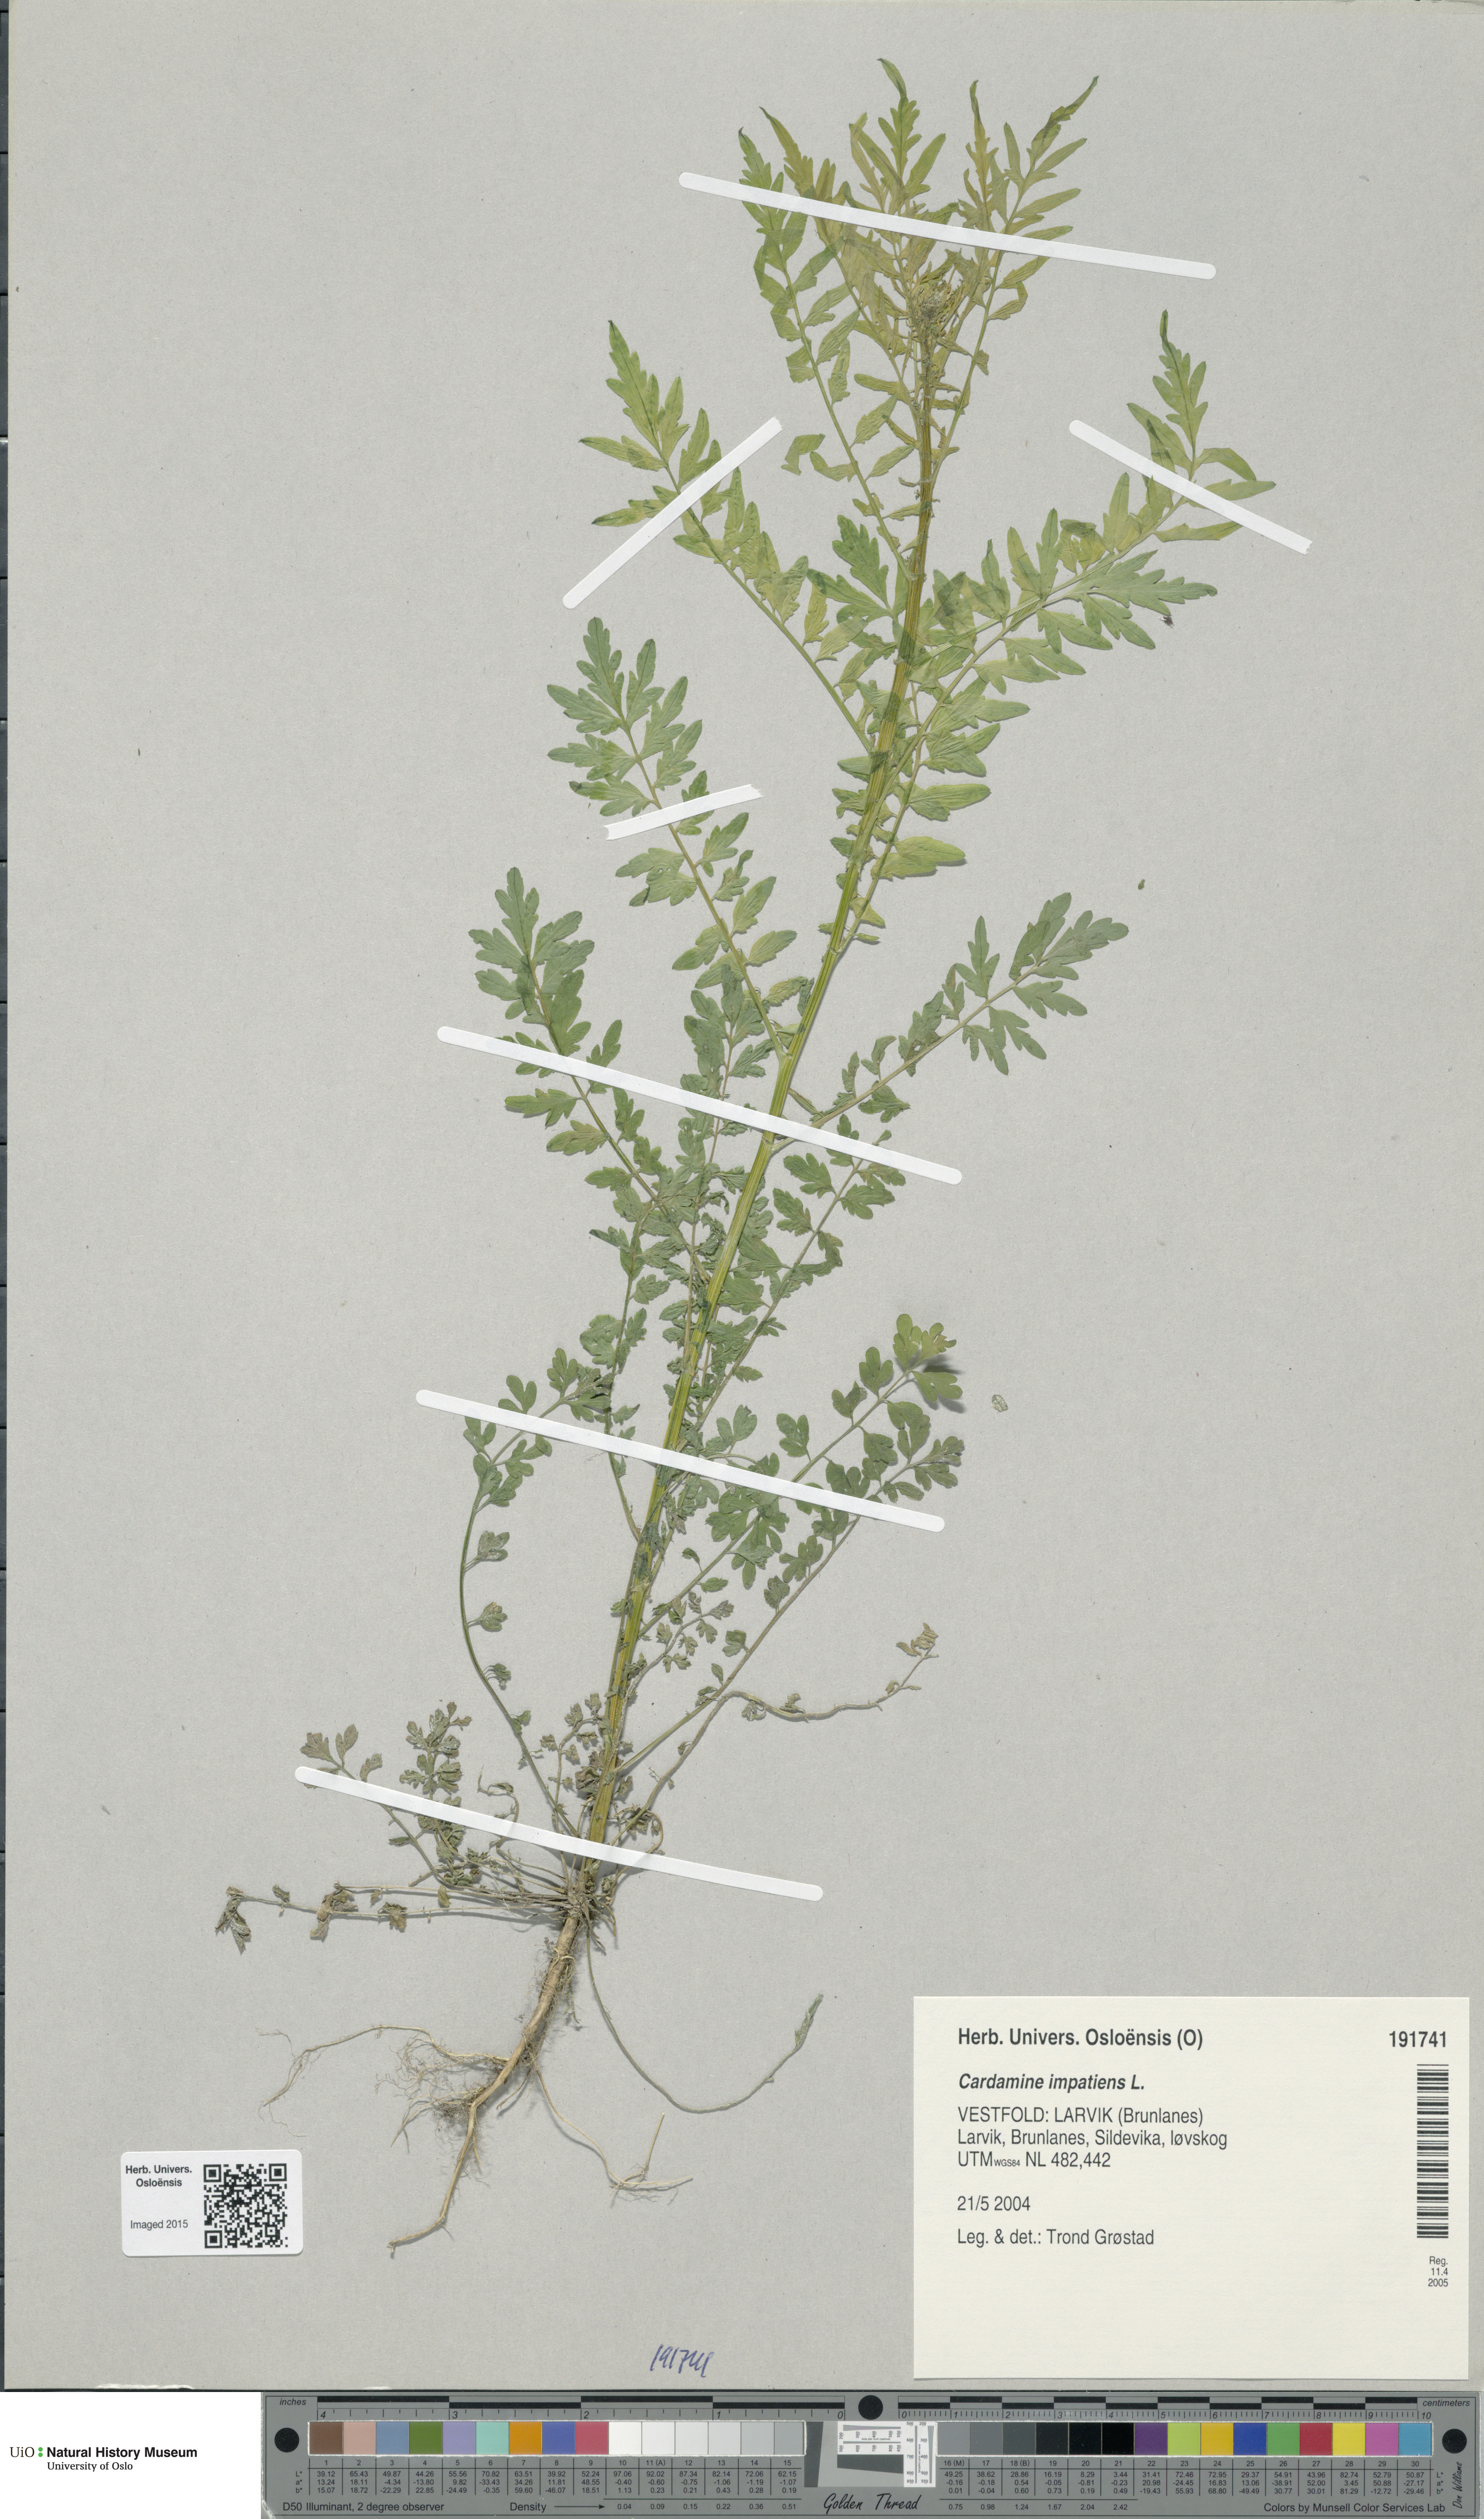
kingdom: Plantae
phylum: Tracheophyta
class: Magnoliopsida
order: Brassicales
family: Brassicaceae
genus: Cardamine
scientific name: Cardamine impatiens
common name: Narrow-leaved bitter-cress
